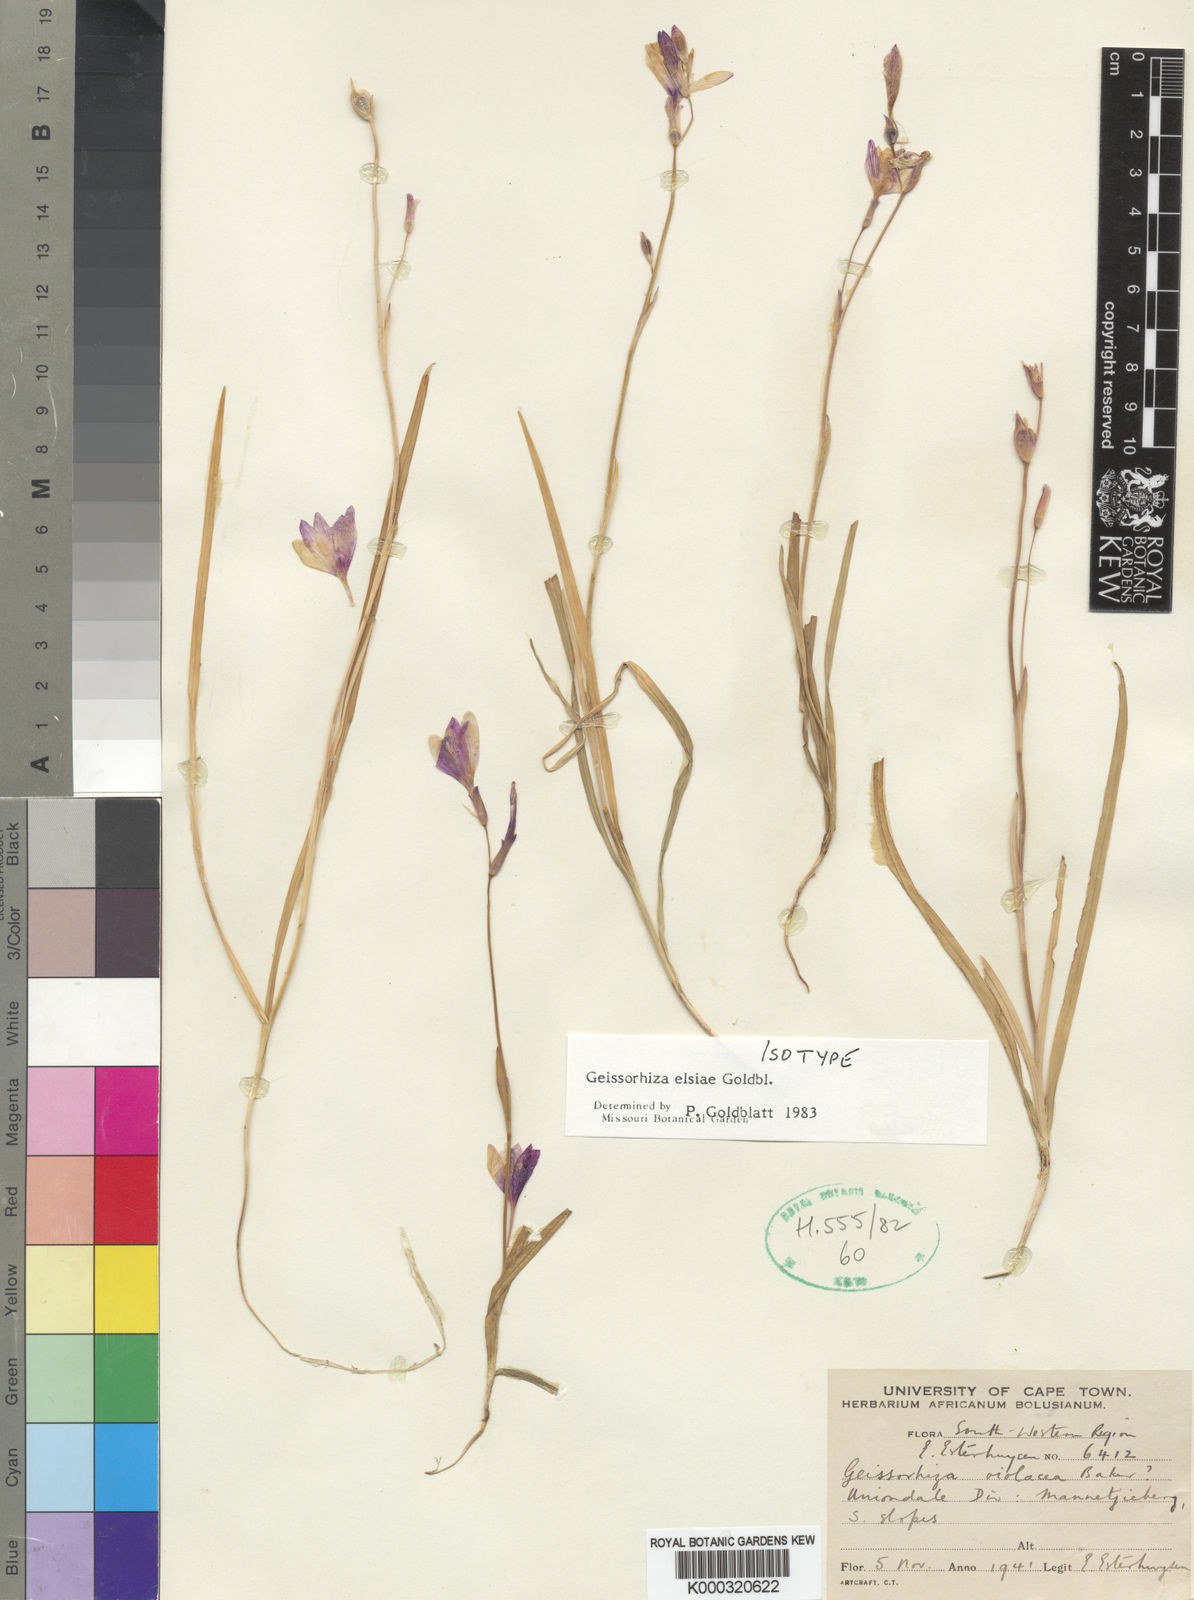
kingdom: Plantae
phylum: Tracheophyta
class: Liliopsida
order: Asparagales
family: Iridaceae
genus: Geissorhiza
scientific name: Geissorhiza elsiae
